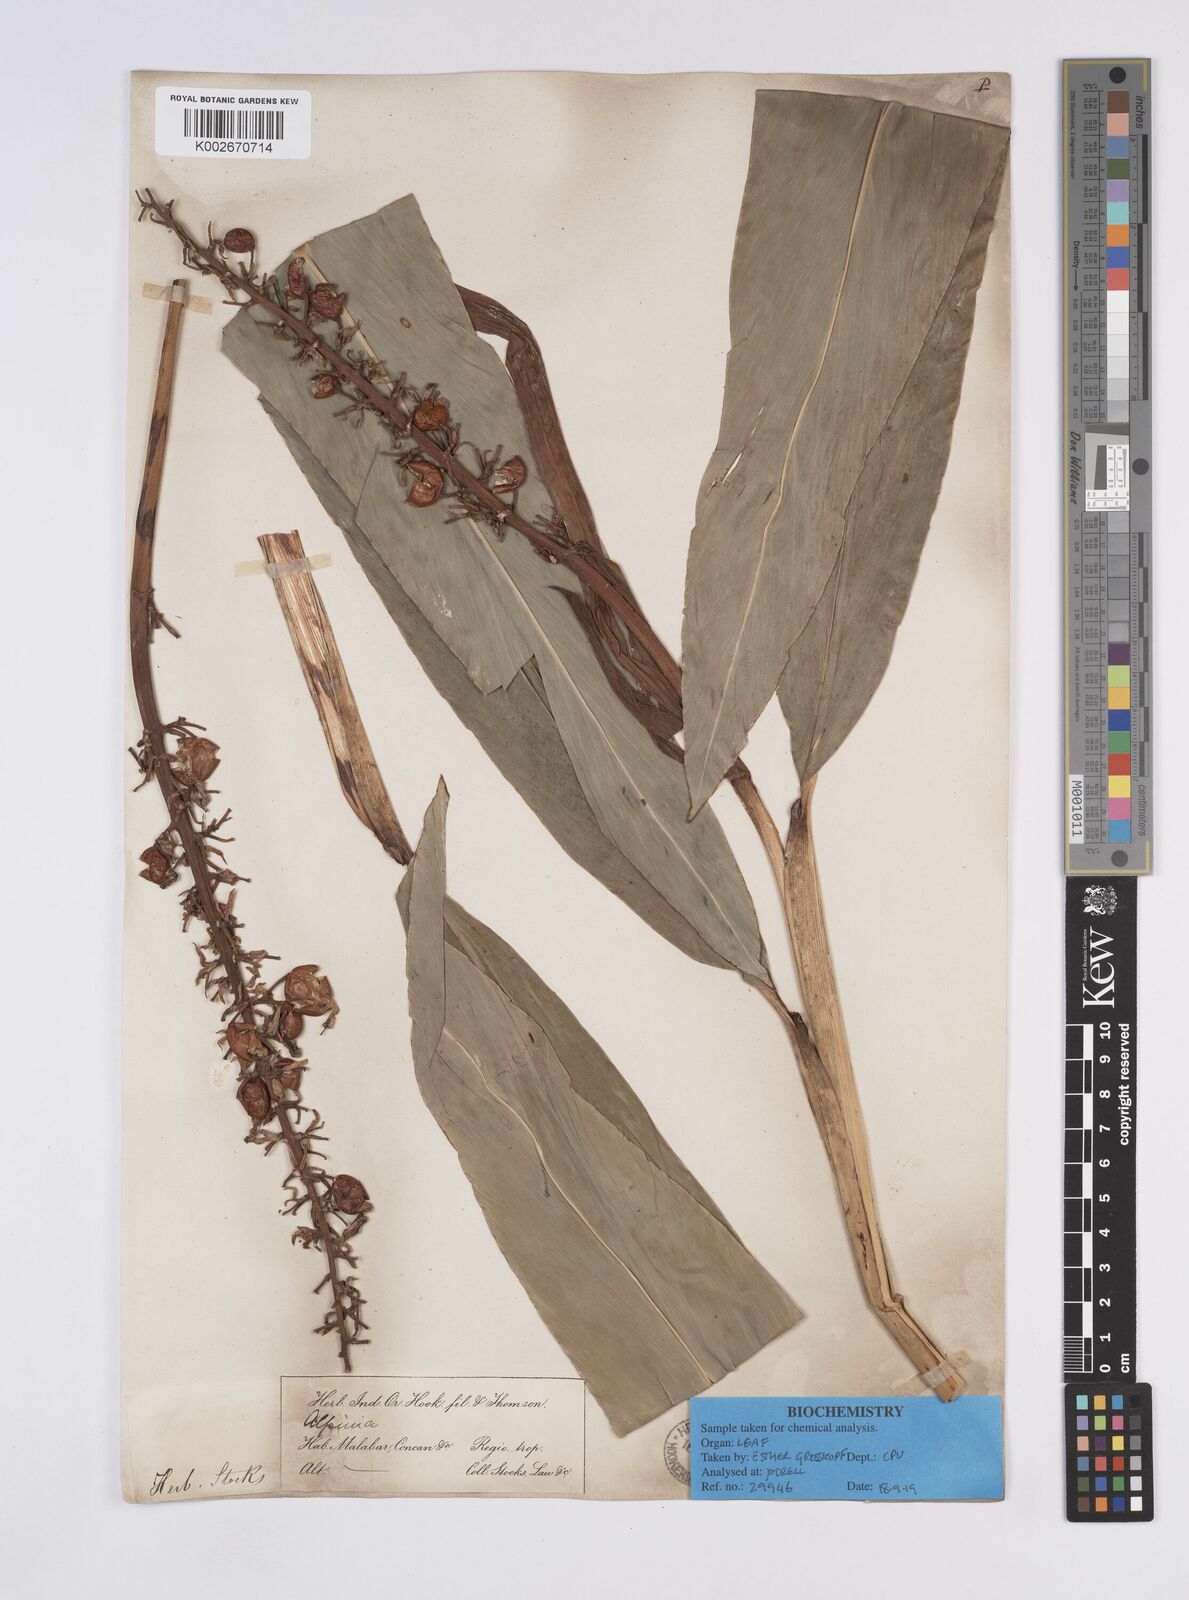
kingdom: Plantae
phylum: Tracheophyta
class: Liliopsida
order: Zingiberales
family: Zingiberaceae
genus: Alpinia
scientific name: Alpinia galanga
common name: Siamese-ginger
